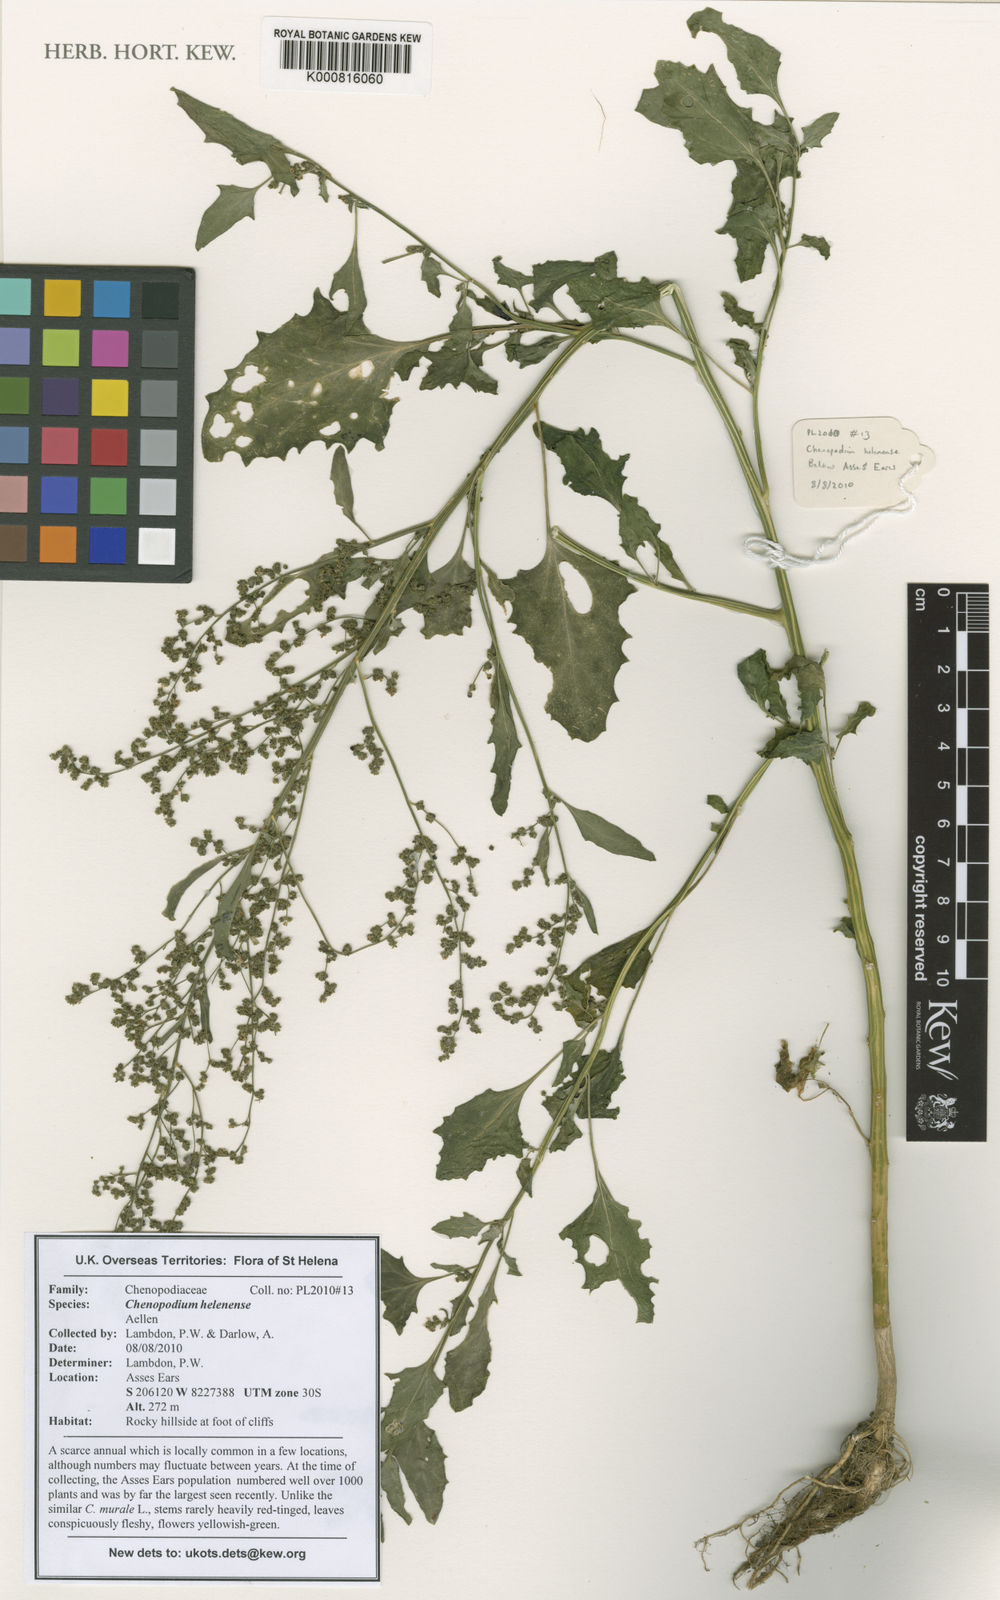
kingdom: Plantae
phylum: Tracheophyta
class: Magnoliopsida
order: Caryophyllales
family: Amaranthaceae
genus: Chenopodiastrum
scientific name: Chenopodiastrum helenense
